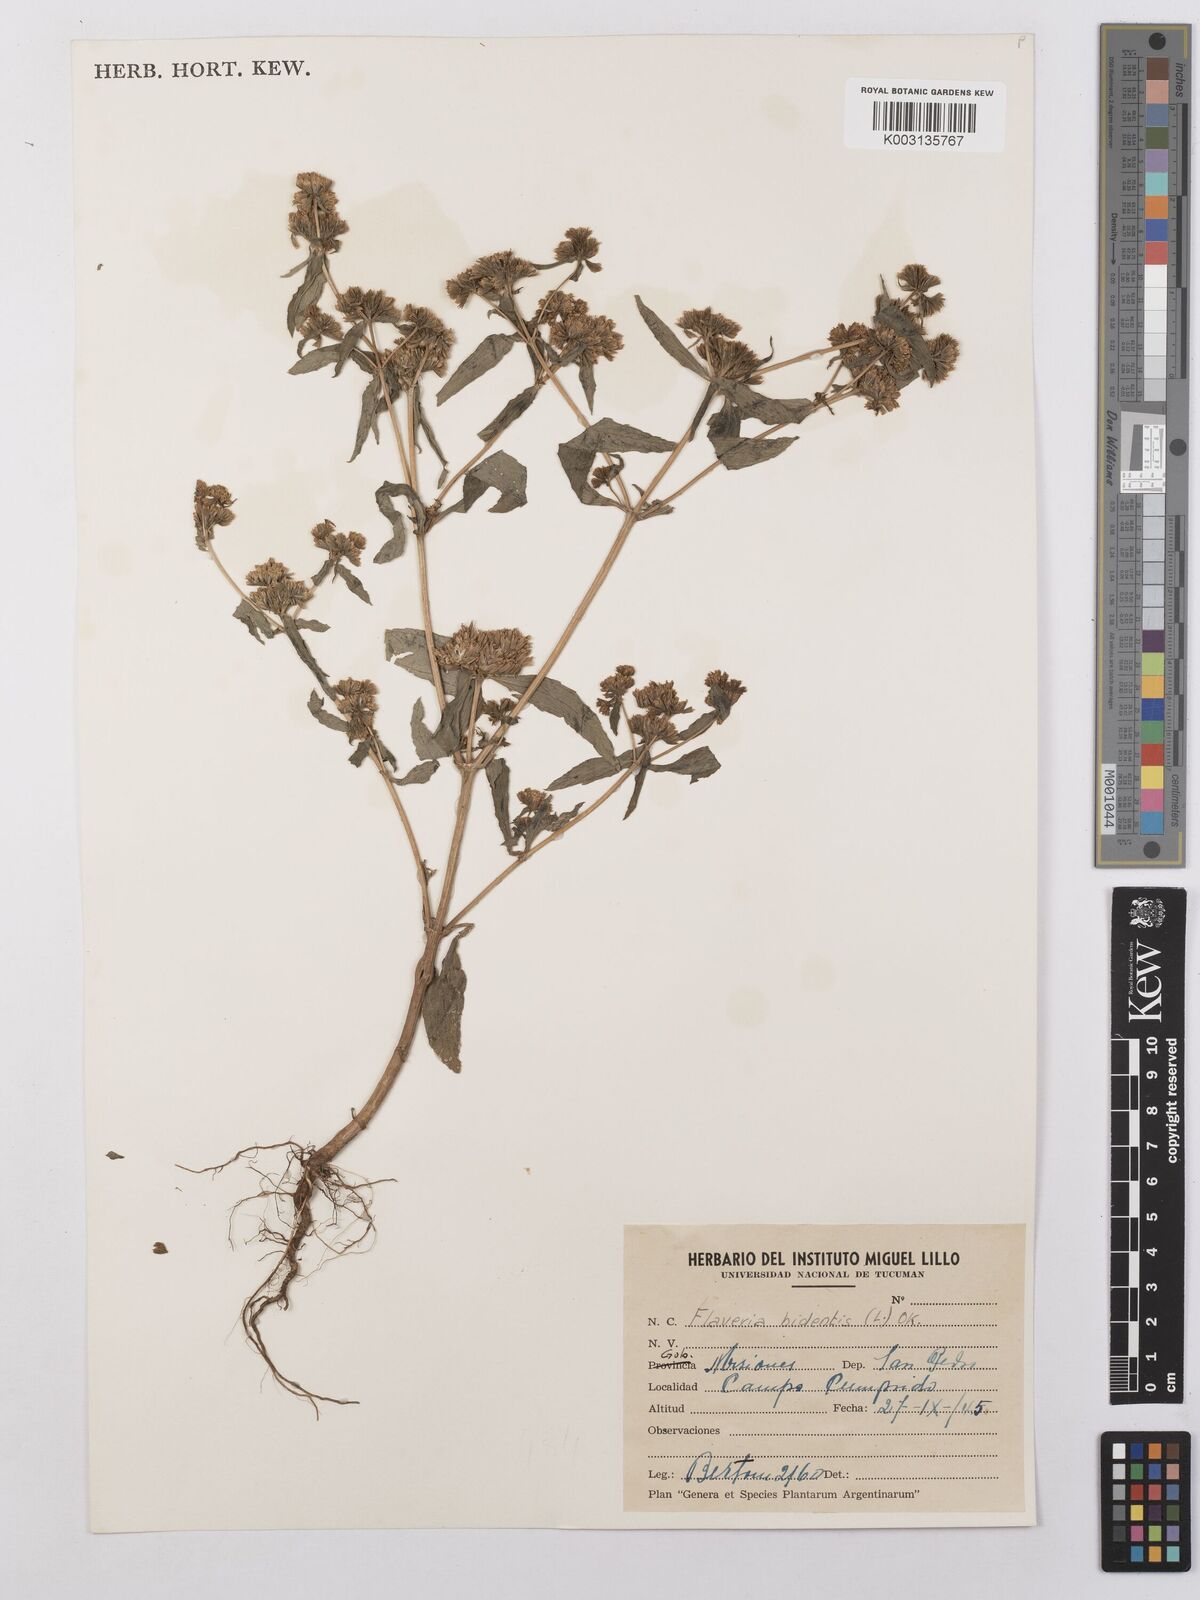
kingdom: Plantae
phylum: Tracheophyta
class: Magnoliopsida
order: Asterales
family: Asteraceae
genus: Flaveria
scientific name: Flaveria bidentis
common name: Coastal plain yellowtops
